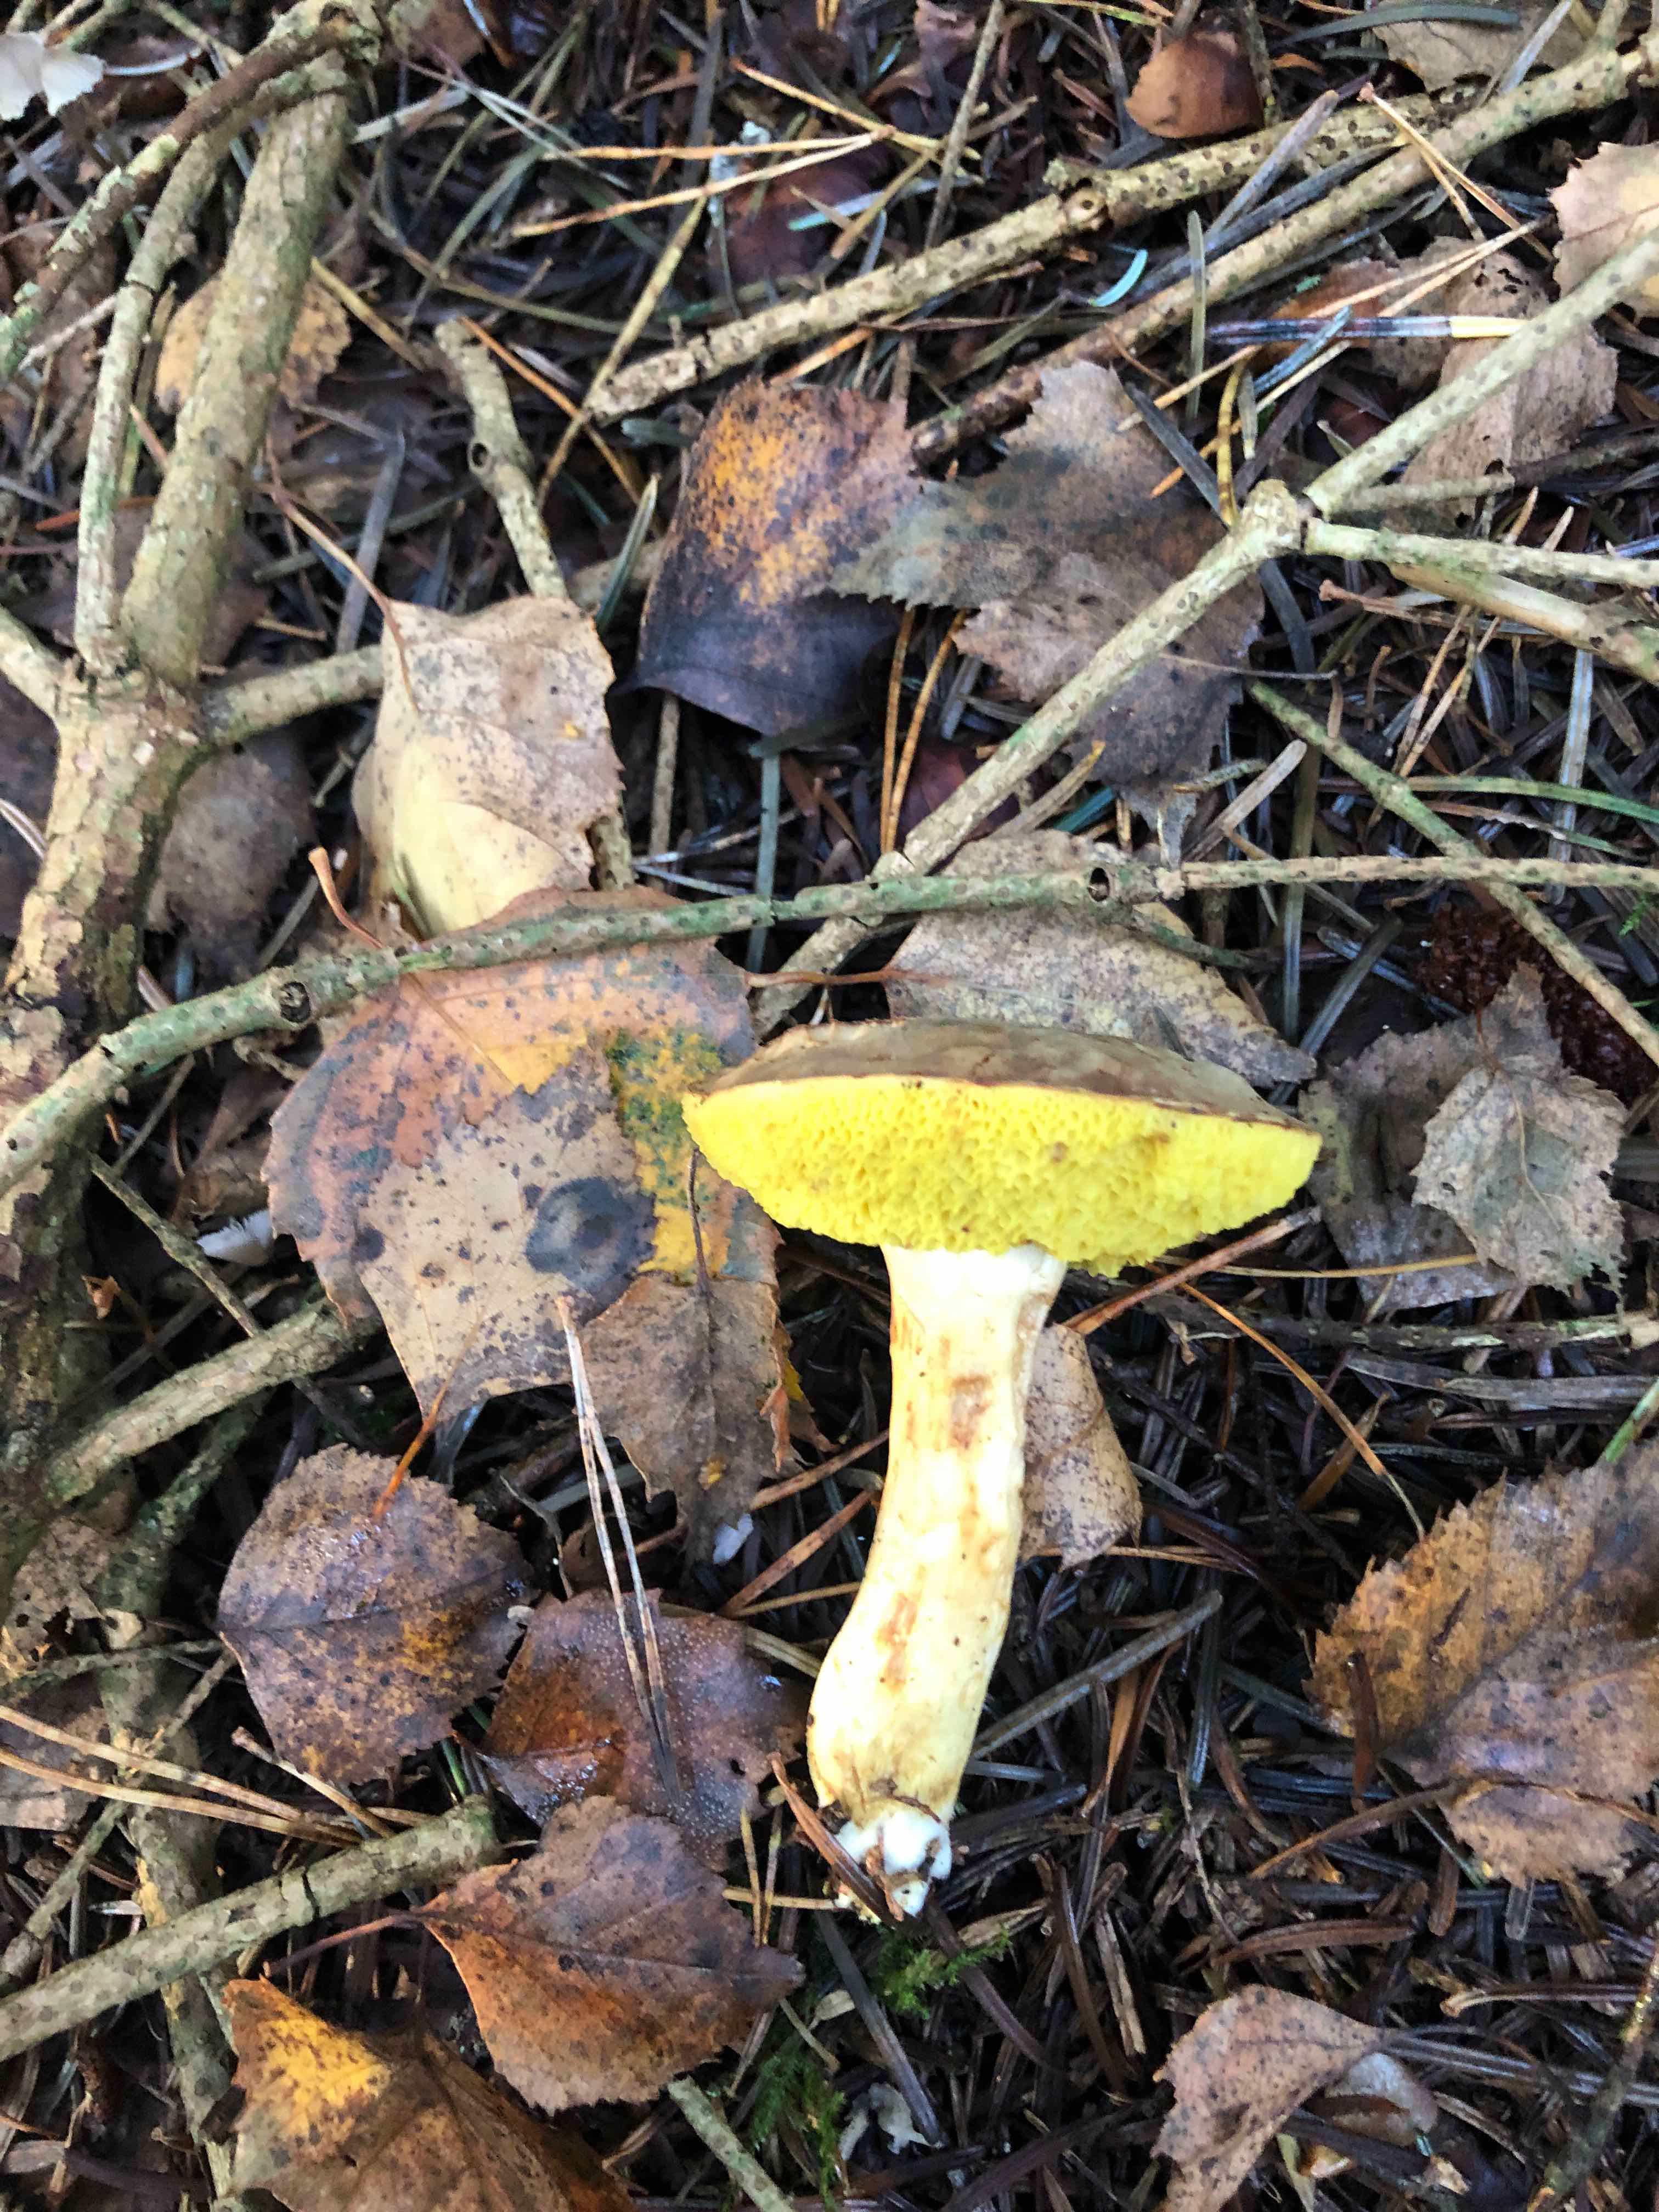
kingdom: Fungi
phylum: Basidiomycota
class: Agaricomycetes
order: Boletales
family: Boletaceae
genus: Xerocomus
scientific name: Xerocomus
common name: filtrørhat
